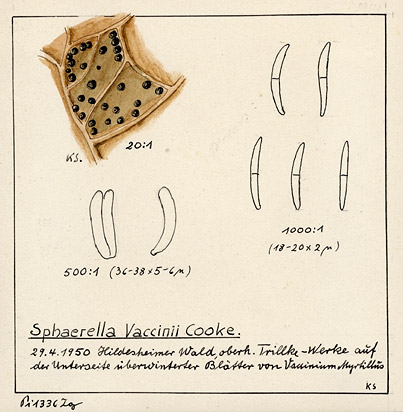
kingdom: Fungi
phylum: Ascomycota
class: Dothideomycetes
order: Mycosphaerellales
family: Mycosphaerellaceae
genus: Mycosphaerella
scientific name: Mycosphaerella vaccinii
